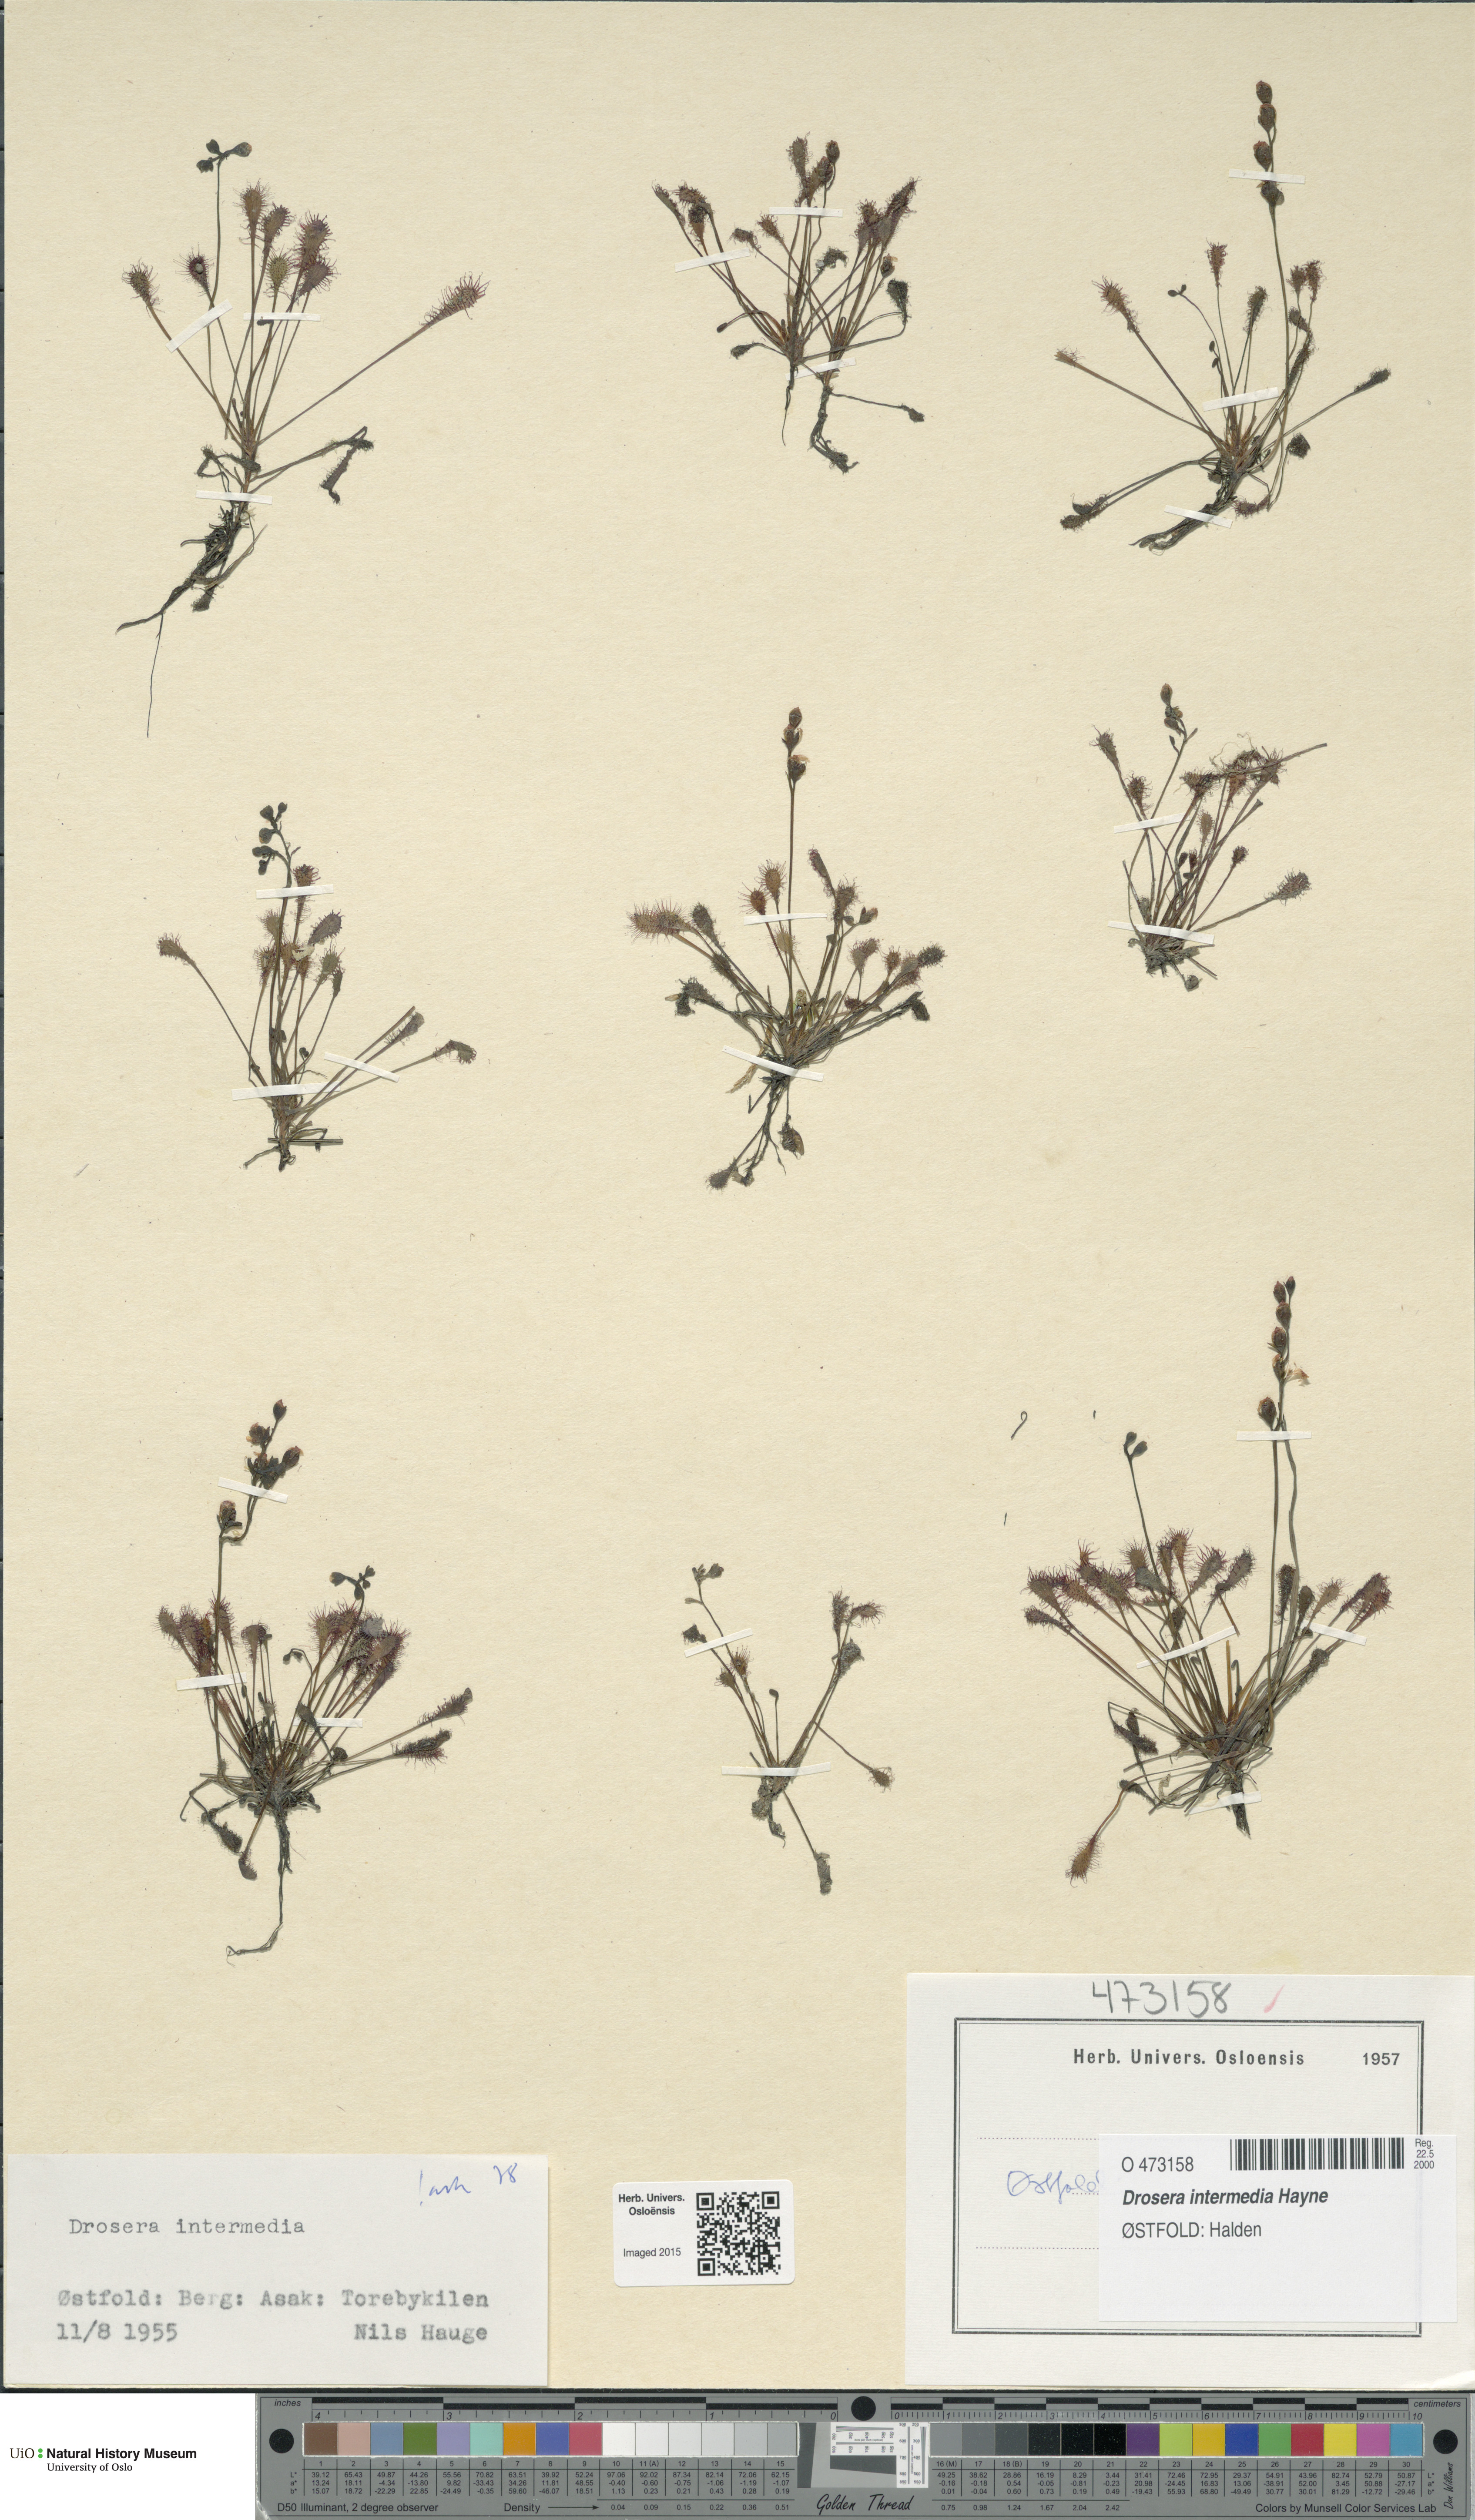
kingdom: Plantae
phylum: Tracheophyta
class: Magnoliopsida
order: Caryophyllales
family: Droseraceae
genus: Drosera
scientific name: Drosera intermedia
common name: Oblong-leaved sundew
